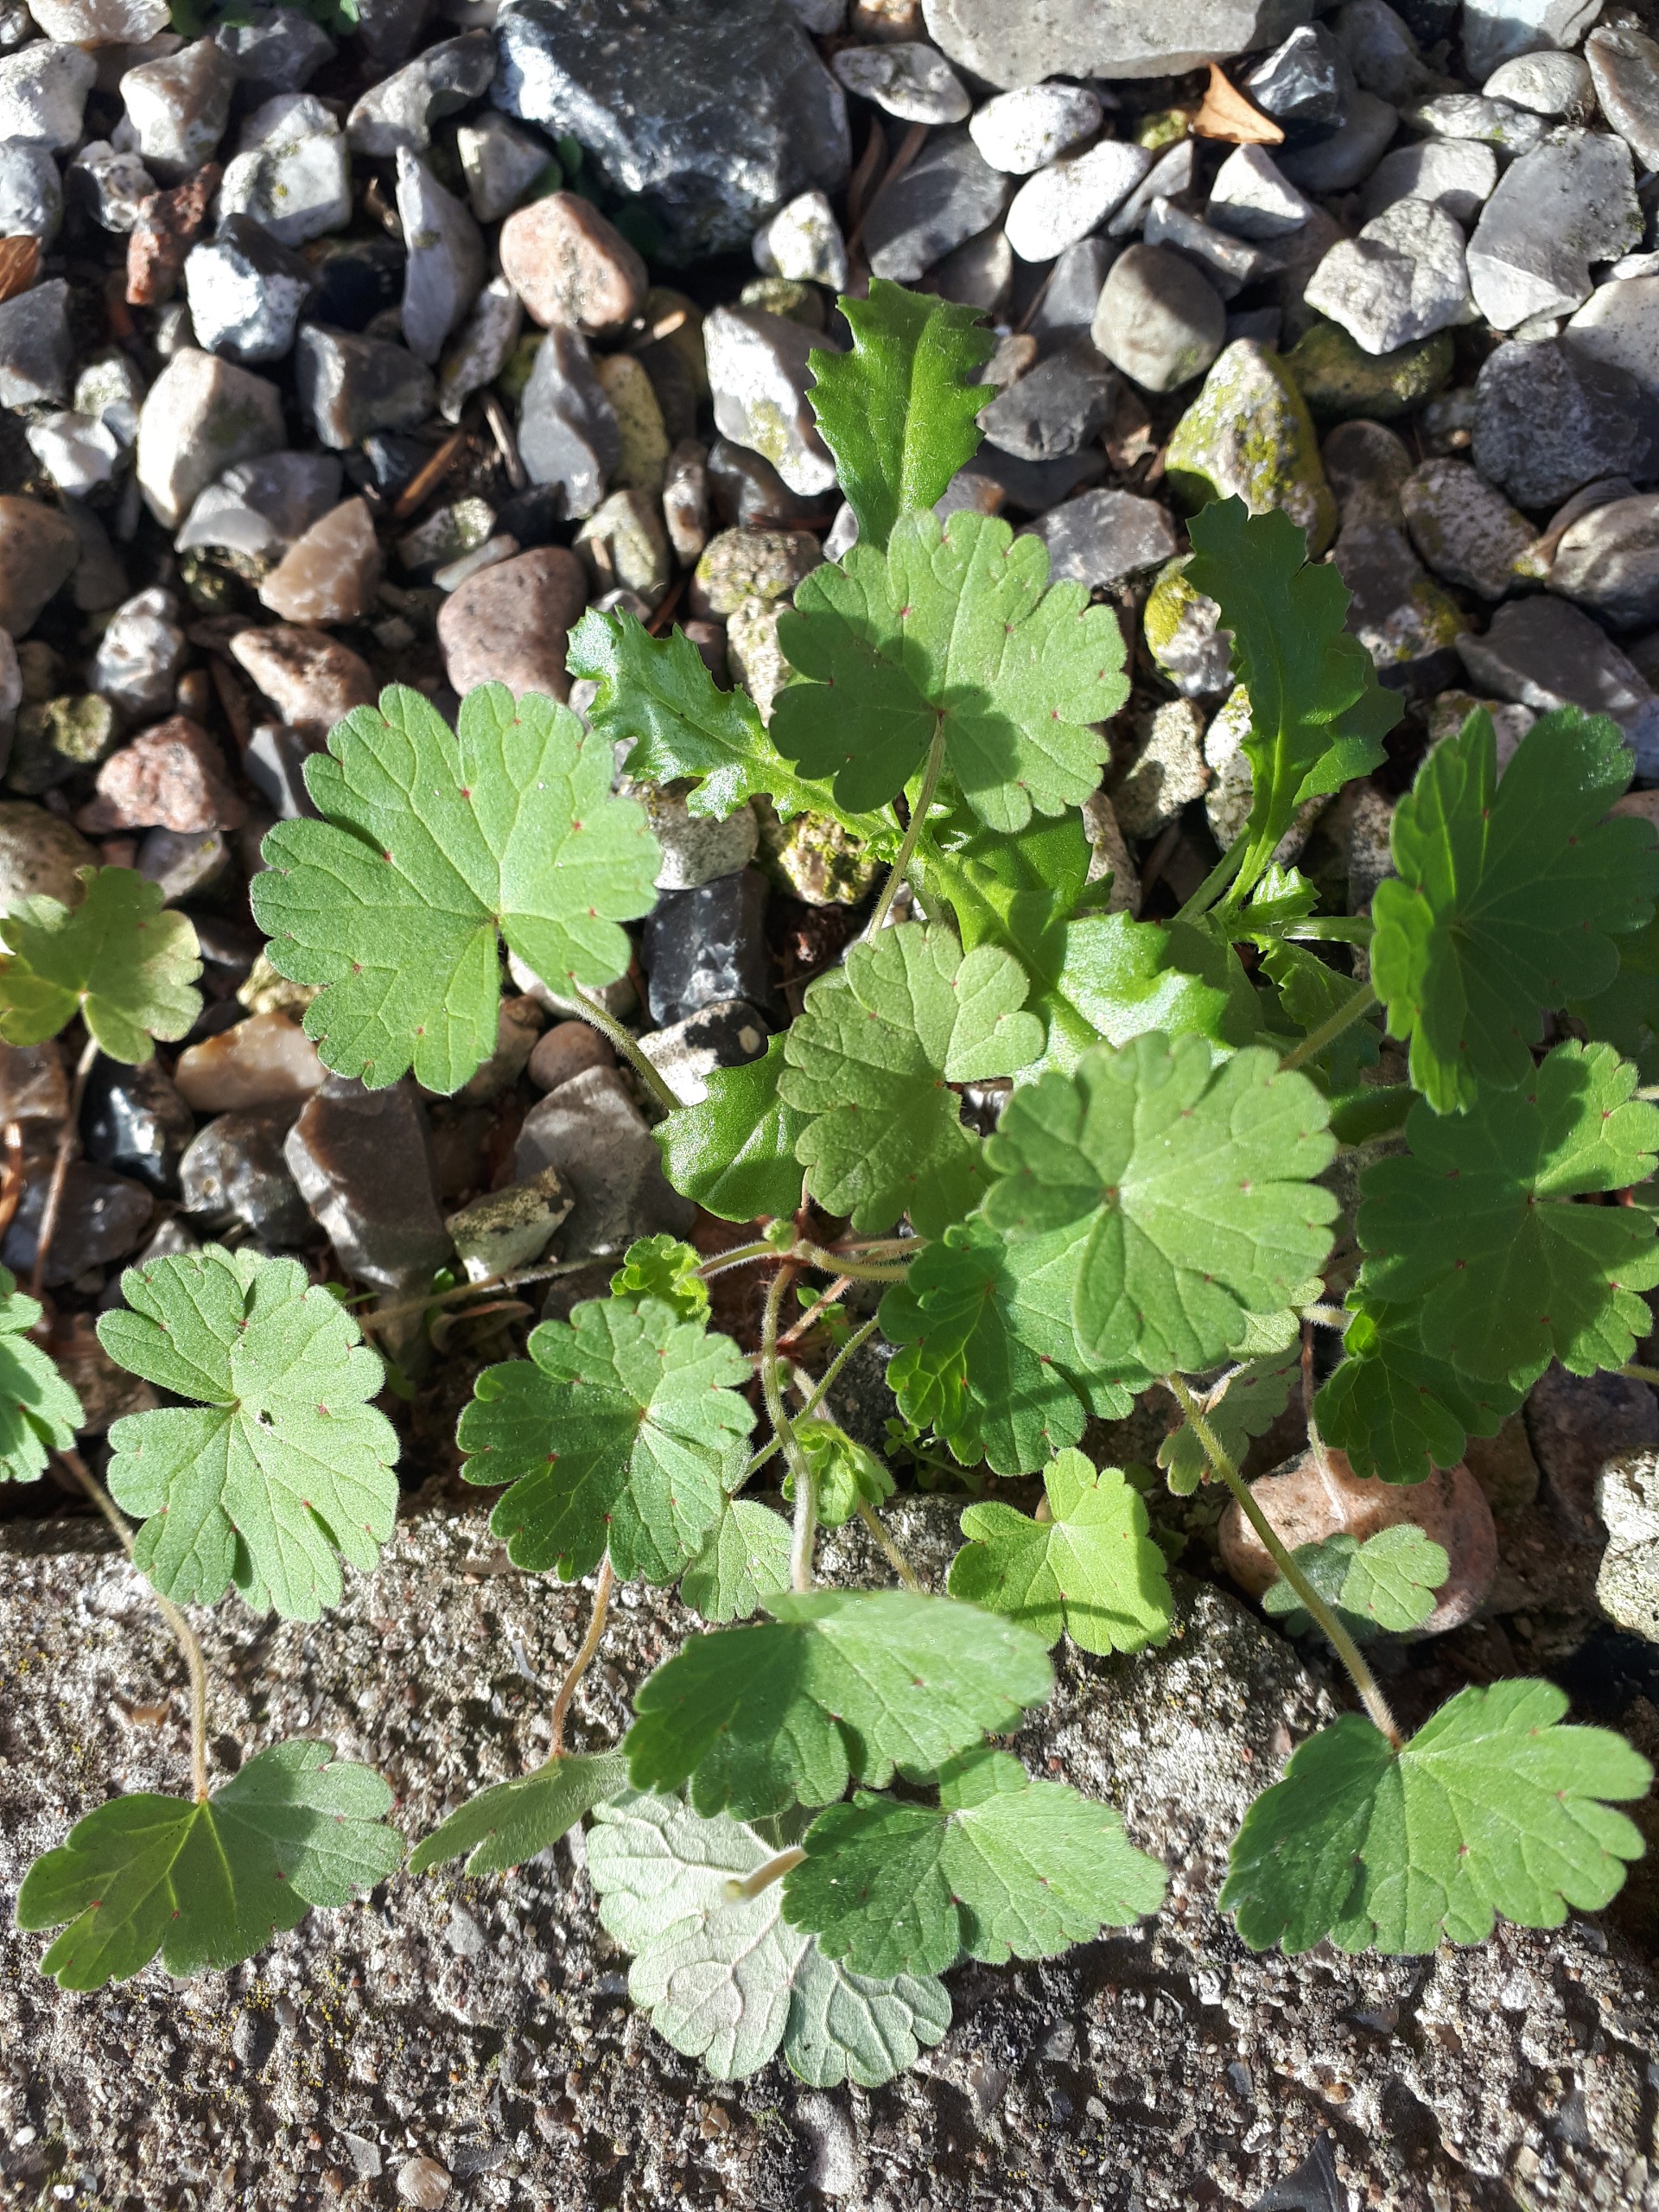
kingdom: Plantae
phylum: Tracheophyta
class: Magnoliopsida
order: Geraniales
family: Geraniaceae
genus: Geranium
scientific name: Geranium rotundifolium
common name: Rundbladet storkenæb
